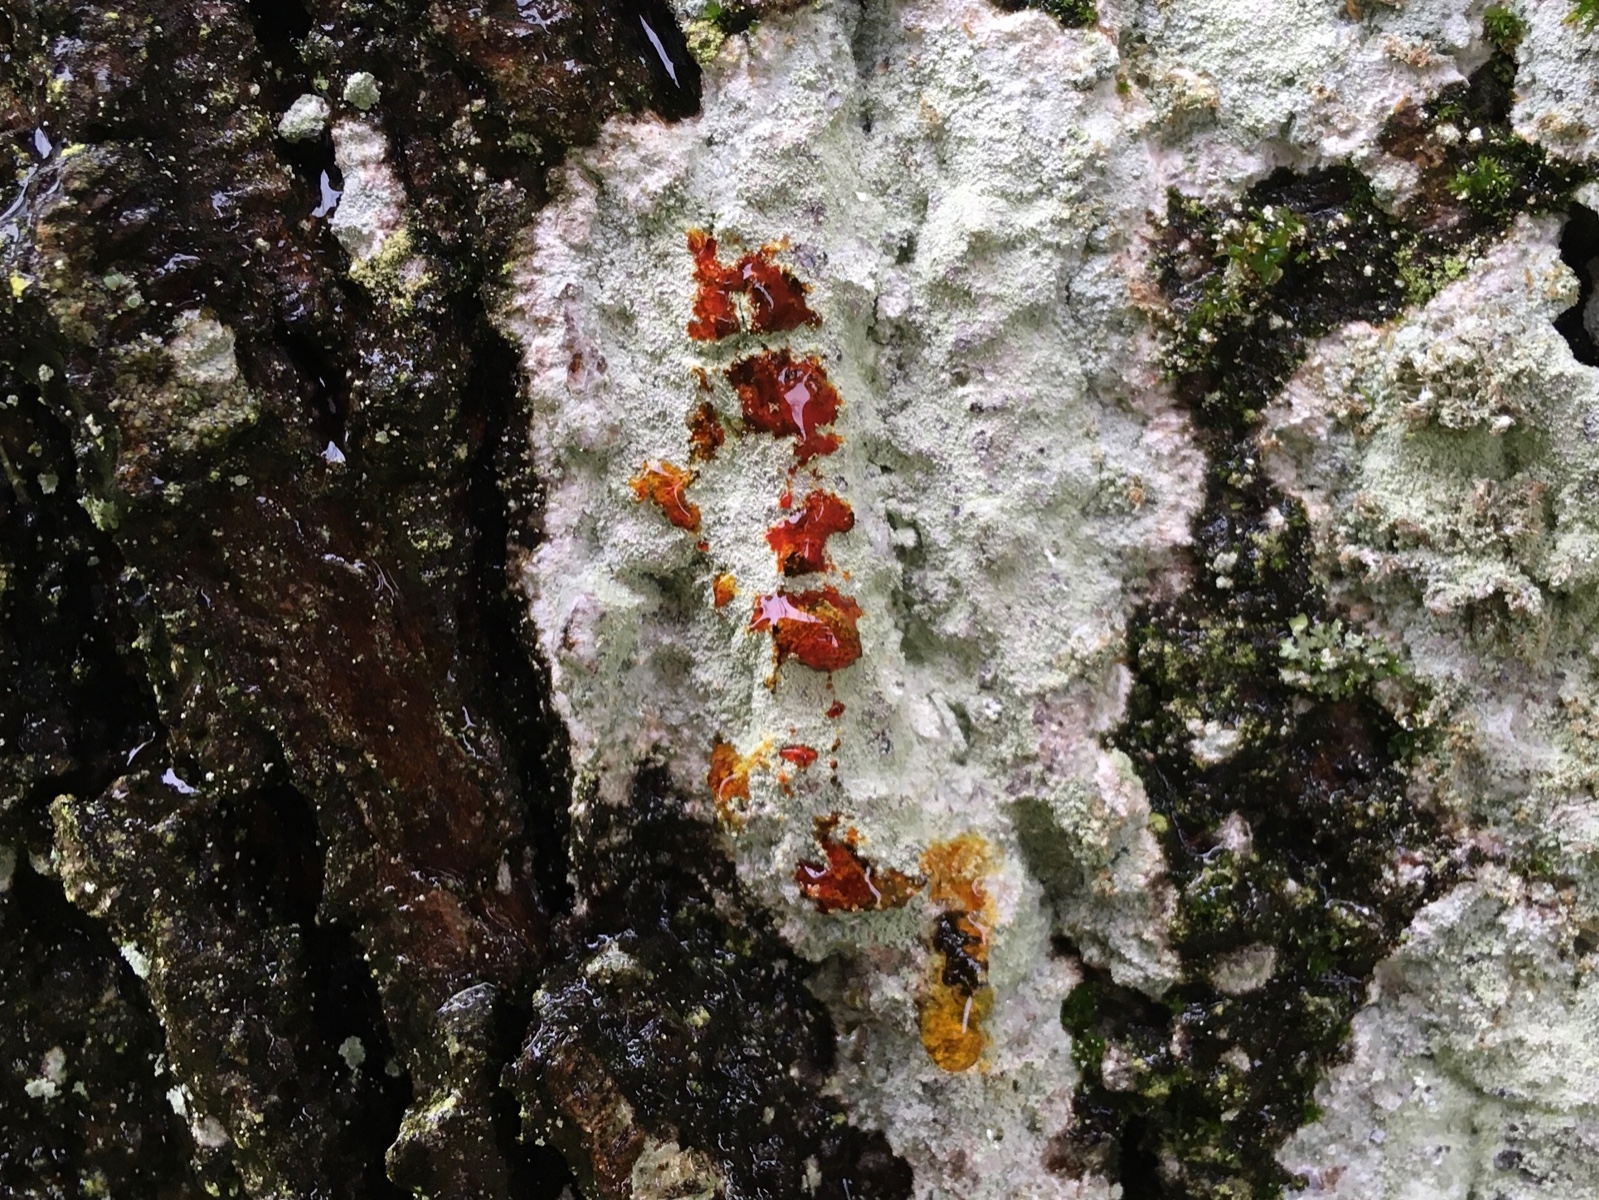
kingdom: Fungi
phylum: Ascomycota
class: Lecanoromycetes
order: Ostropales
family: Phlyctidaceae
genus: Phlyctis
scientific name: Phlyctis argena
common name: almindelig sølvlav
